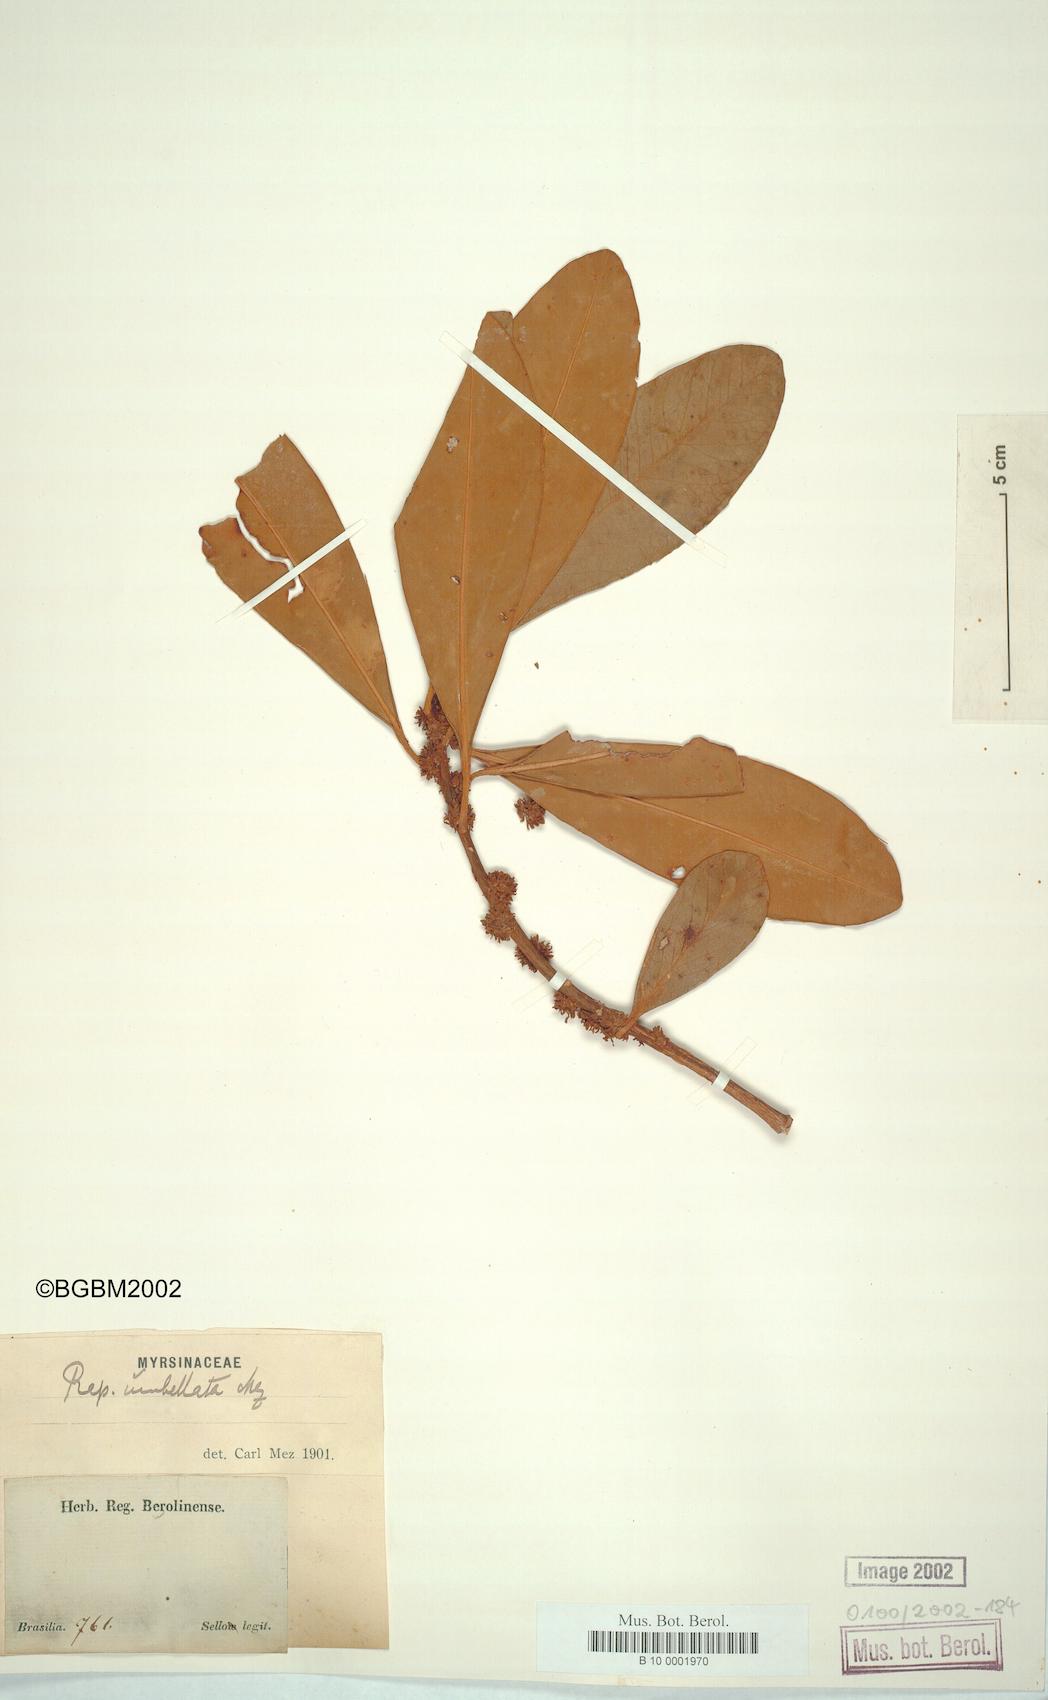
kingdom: Plantae
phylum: Tracheophyta
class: Magnoliopsida
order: Ericales
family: Primulaceae
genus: Myrsine
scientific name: Myrsine umbellata
